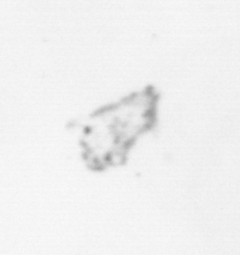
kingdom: Chromista
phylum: Ochrophyta
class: Bacillariophyceae
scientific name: Bacillariophyceae
